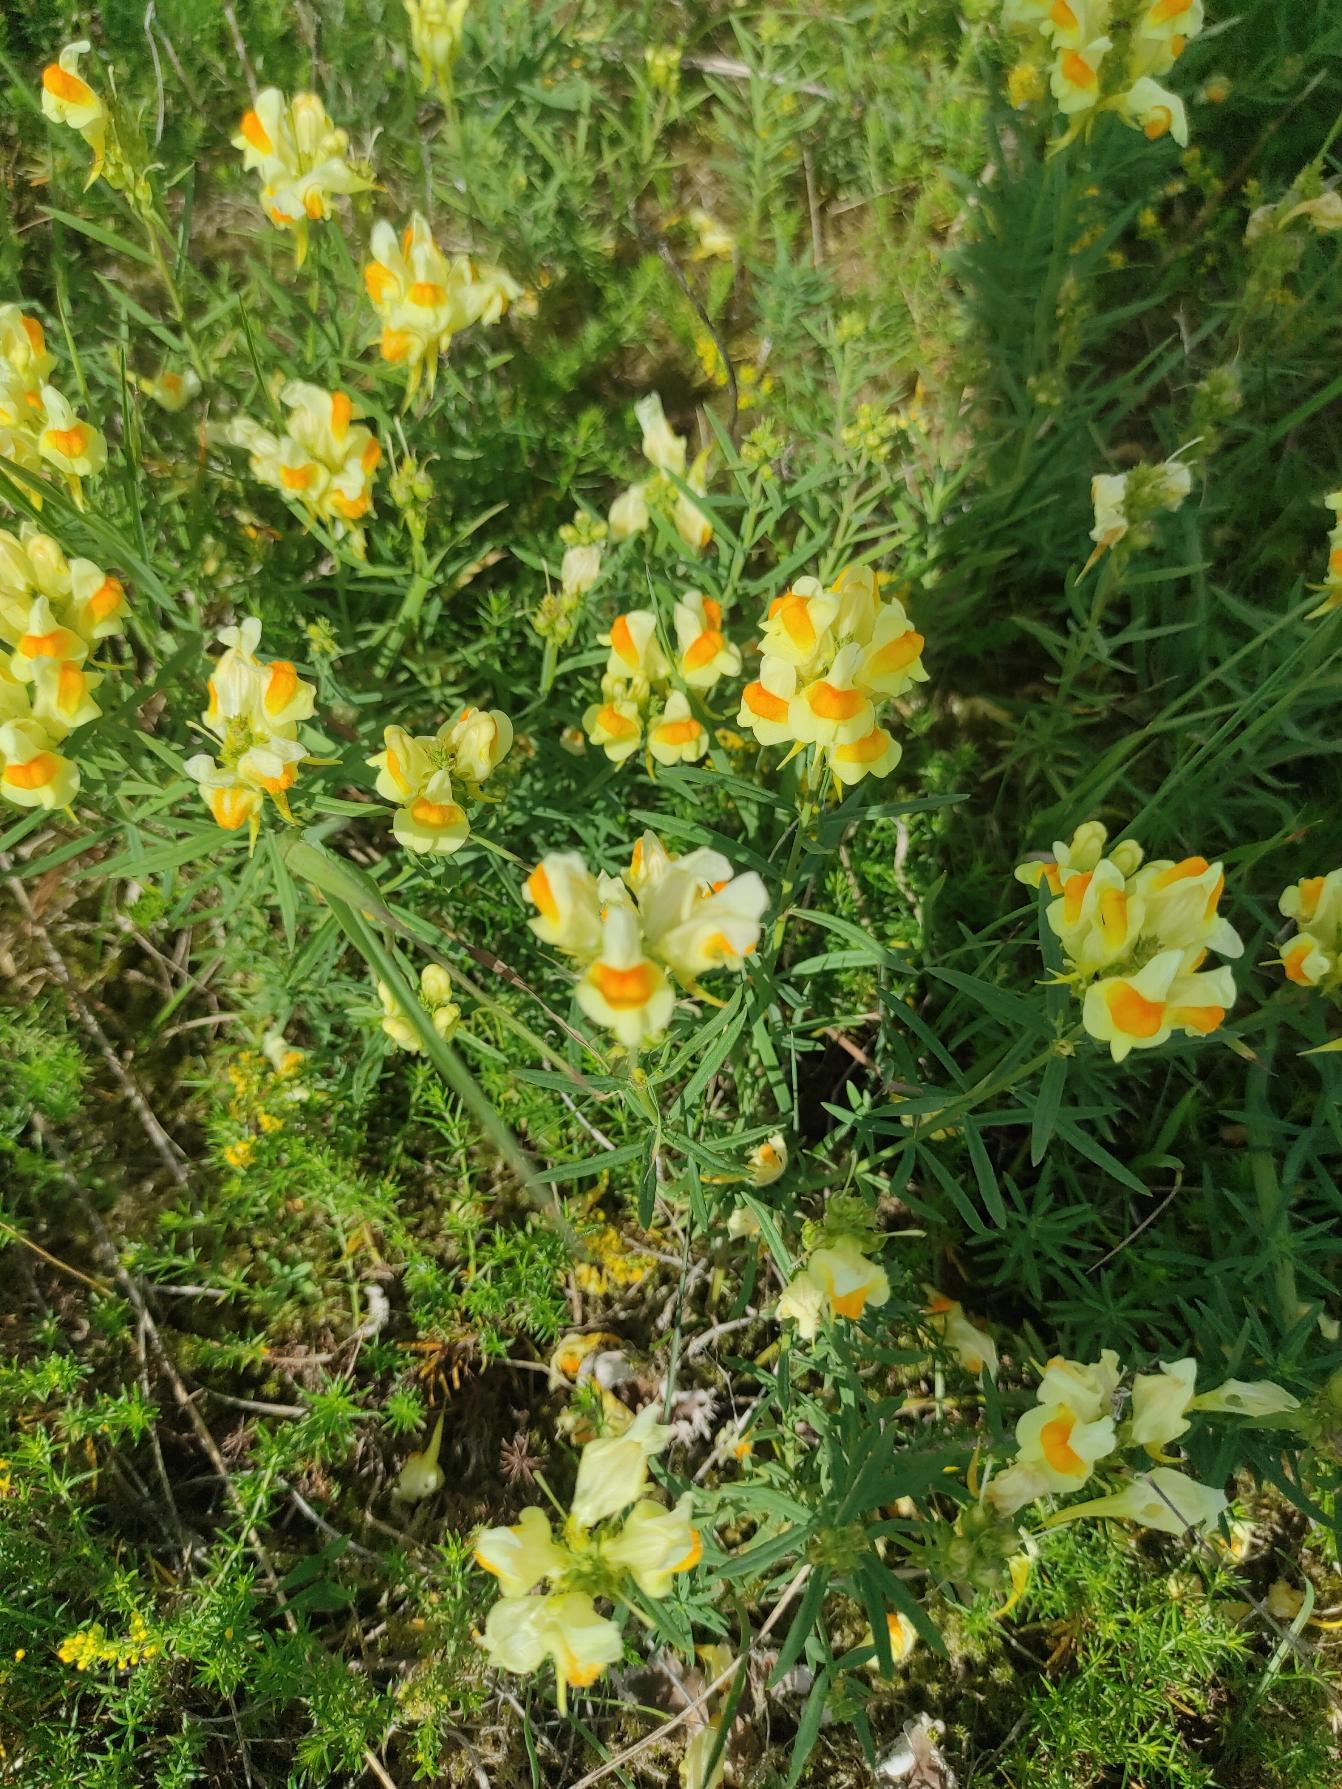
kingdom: Plantae
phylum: Tracheophyta
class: Magnoliopsida
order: Lamiales
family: Plantaginaceae
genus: Linaria
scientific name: Linaria vulgaris
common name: Almindelig torskemund
